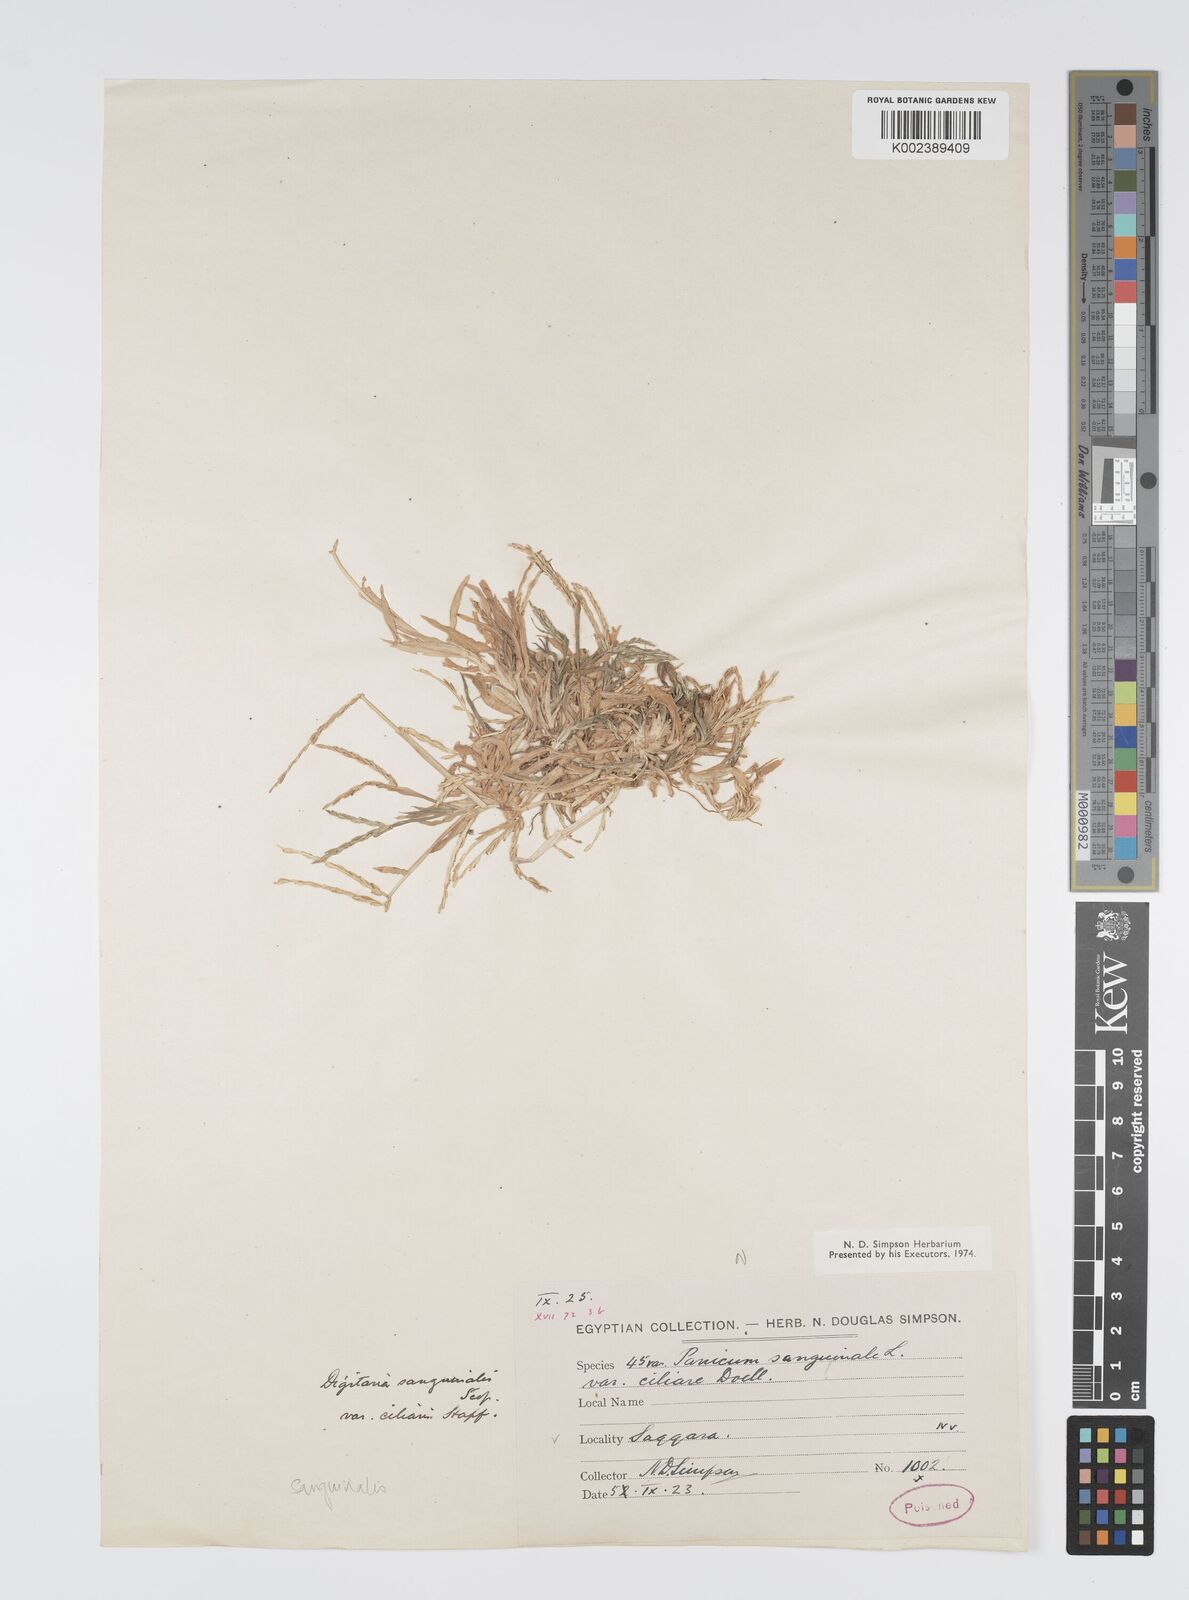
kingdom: Plantae
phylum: Tracheophyta
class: Liliopsida
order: Poales
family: Poaceae
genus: Digitaria
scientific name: Digitaria sanguinalis
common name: Hairy crabgrass
